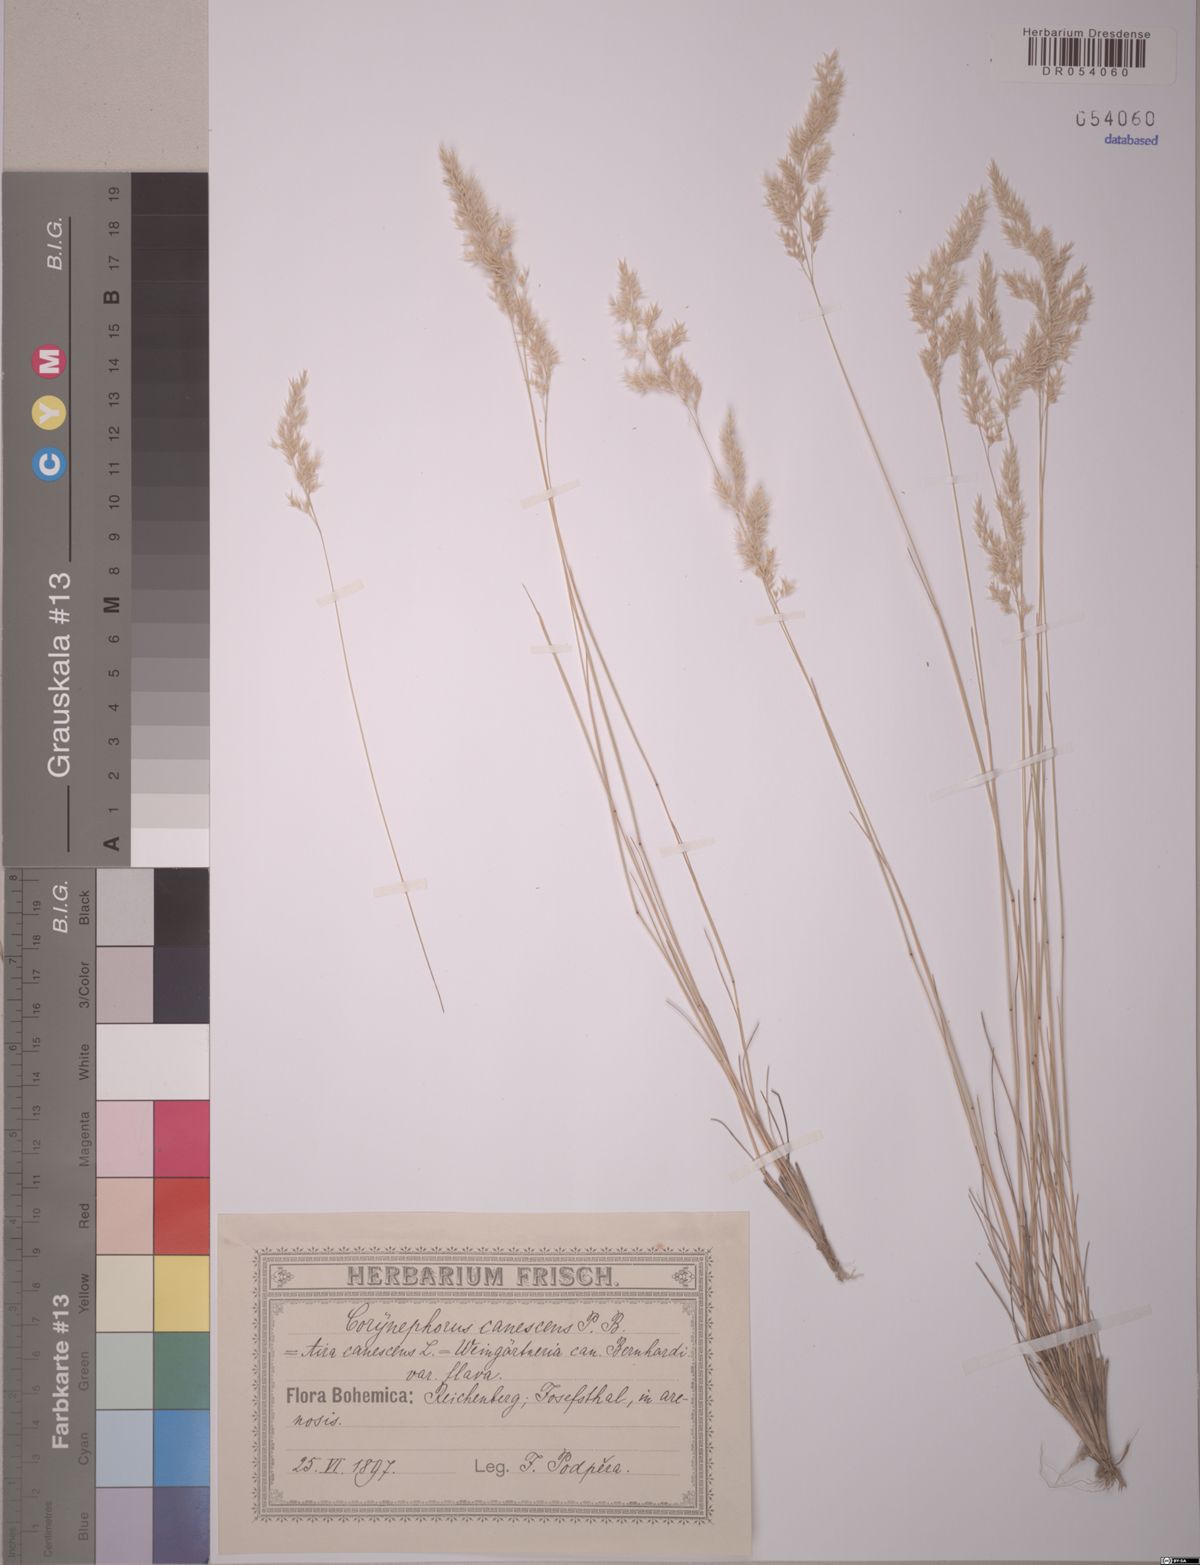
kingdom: Plantae
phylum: Tracheophyta
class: Liliopsida
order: Poales
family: Poaceae
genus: Corynephorus
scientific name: Corynephorus canescens
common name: Grey hair-grass
